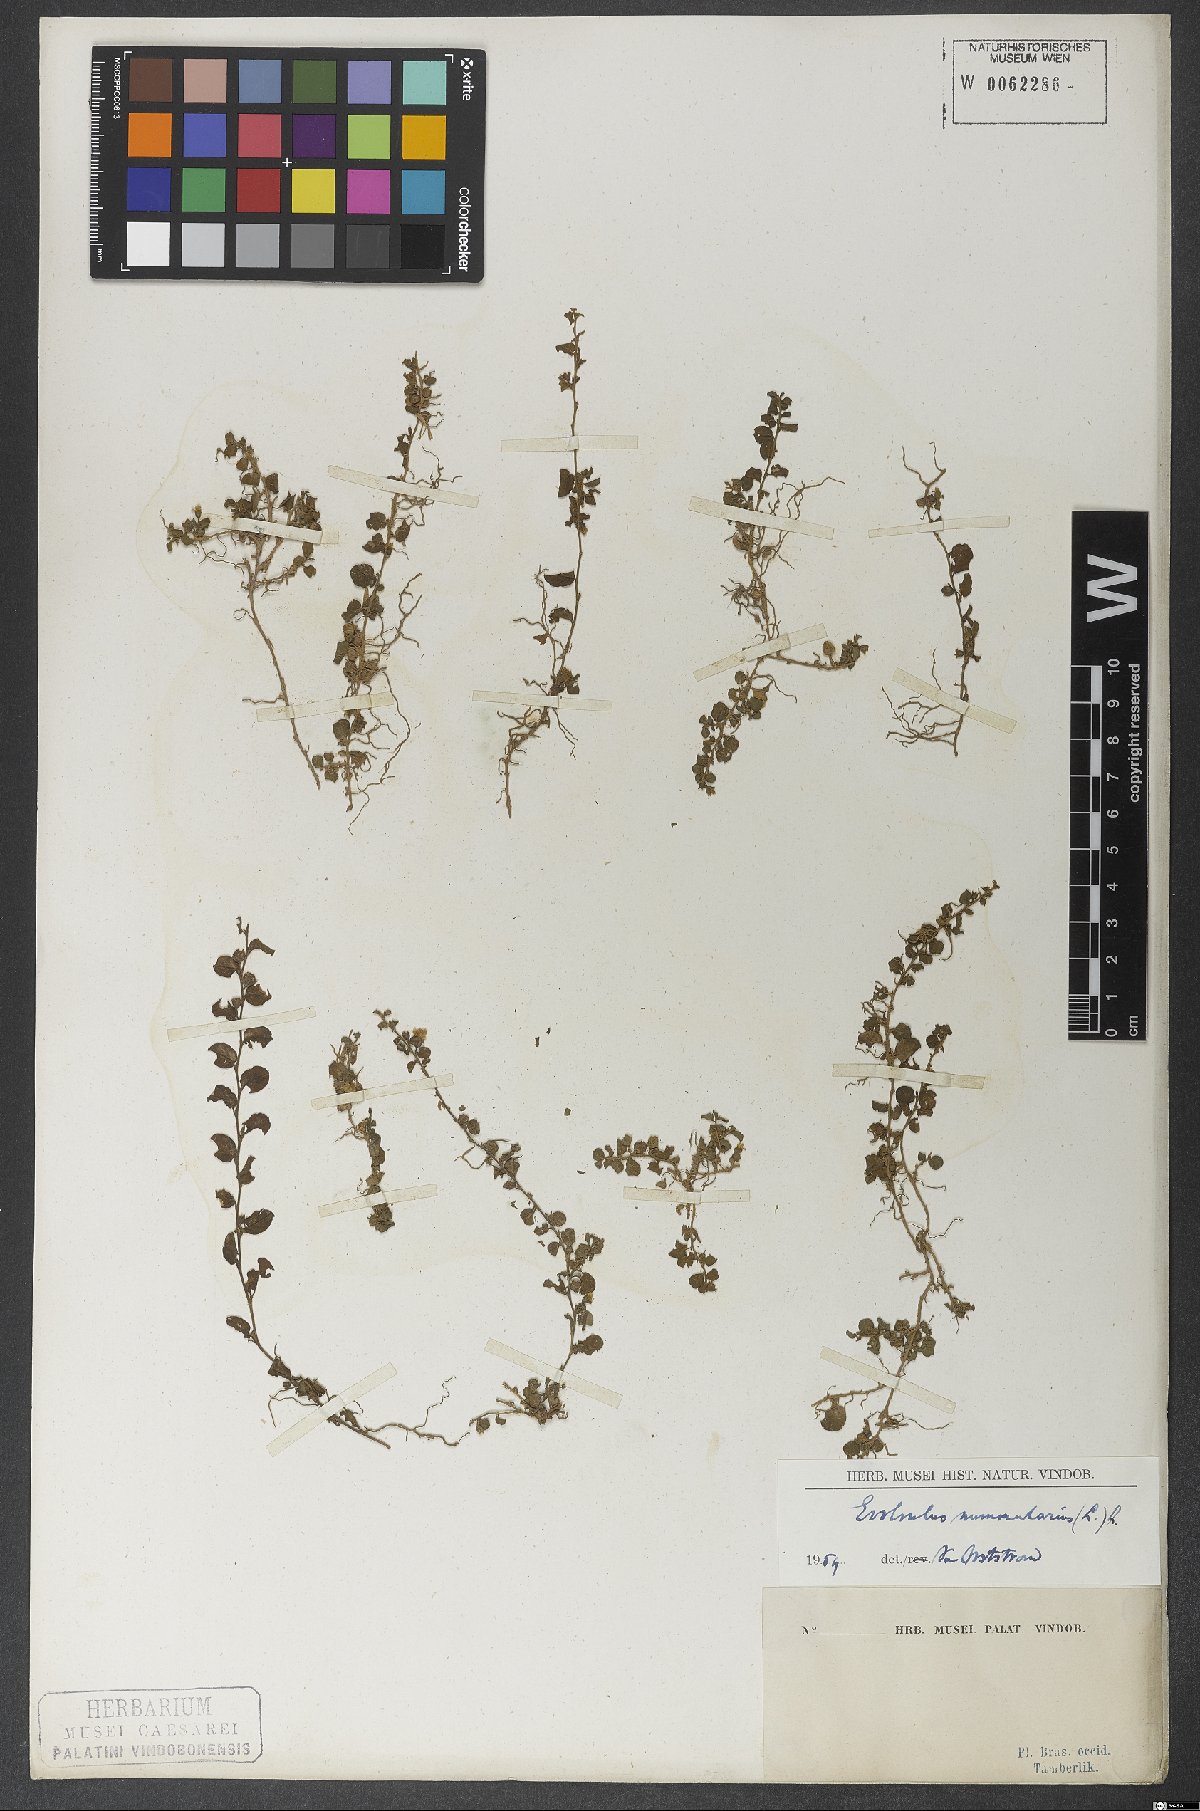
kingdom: Plantae
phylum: Tracheophyta
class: Magnoliopsida
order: Solanales
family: Convolvulaceae
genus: Evolvulus
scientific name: Evolvulus nummularius
